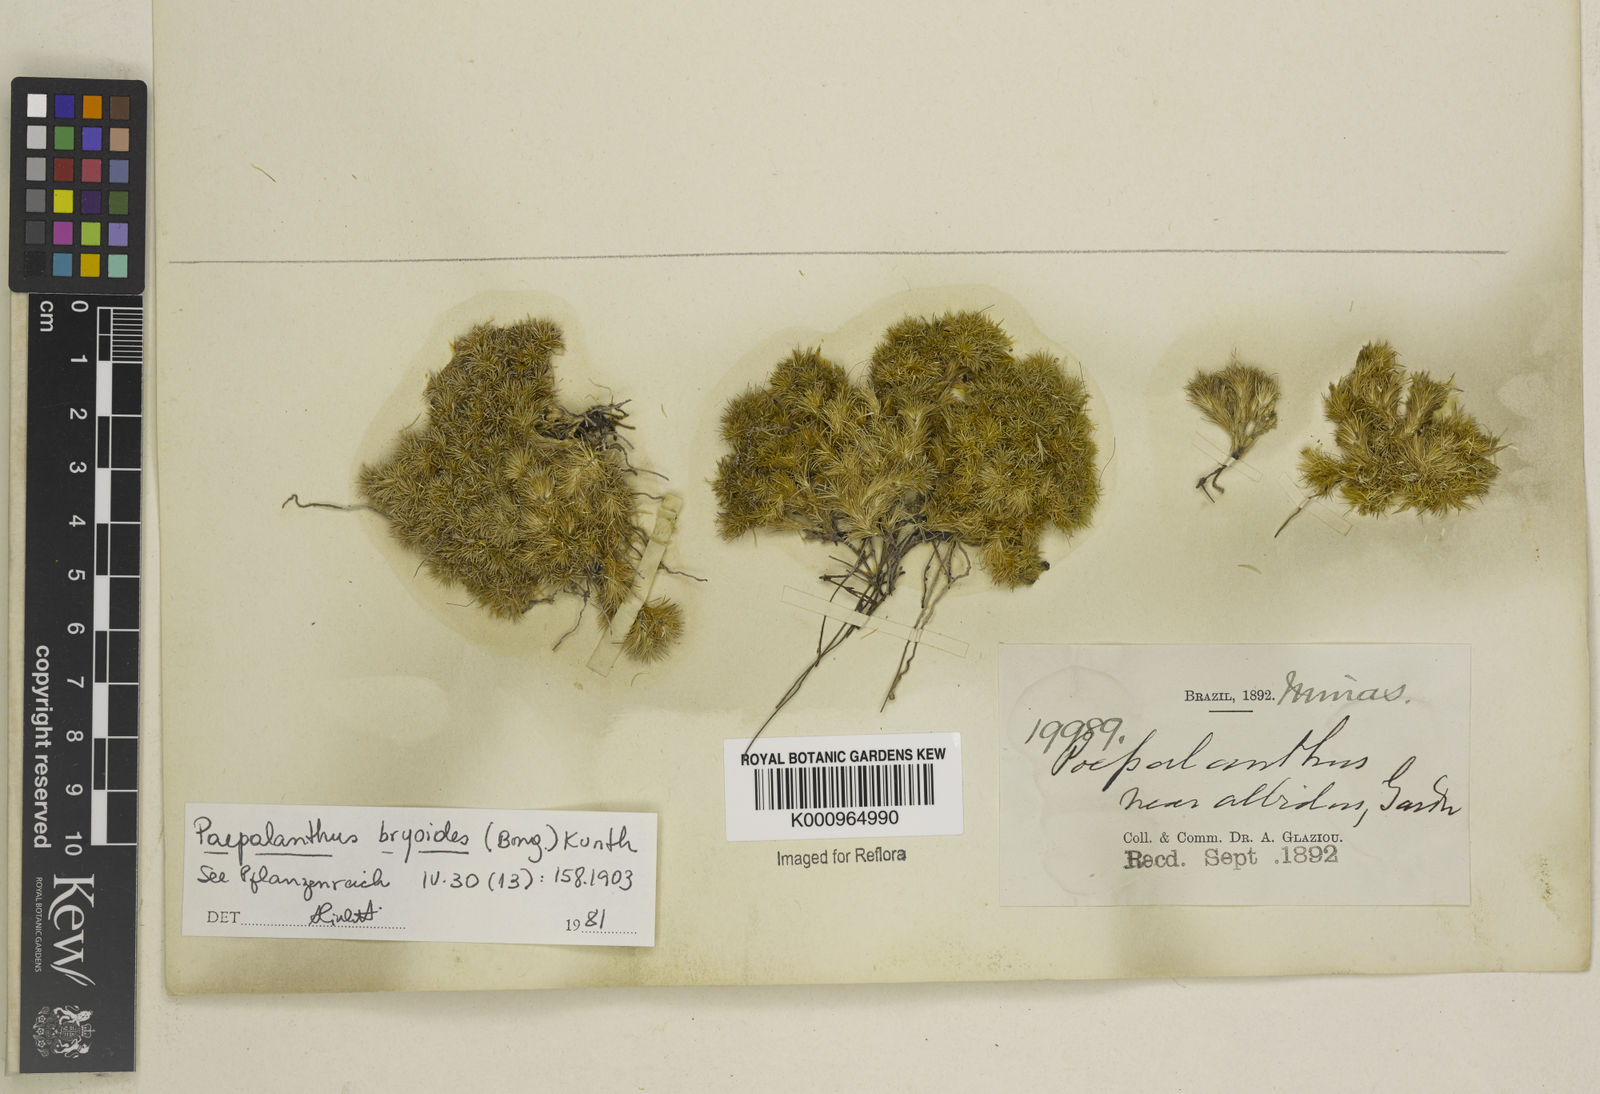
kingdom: Plantae
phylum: Tracheophyta
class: Liliopsida
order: Poales
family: Eriocaulaceae
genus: Paepalanthus
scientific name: Paepalanthus bryoides
